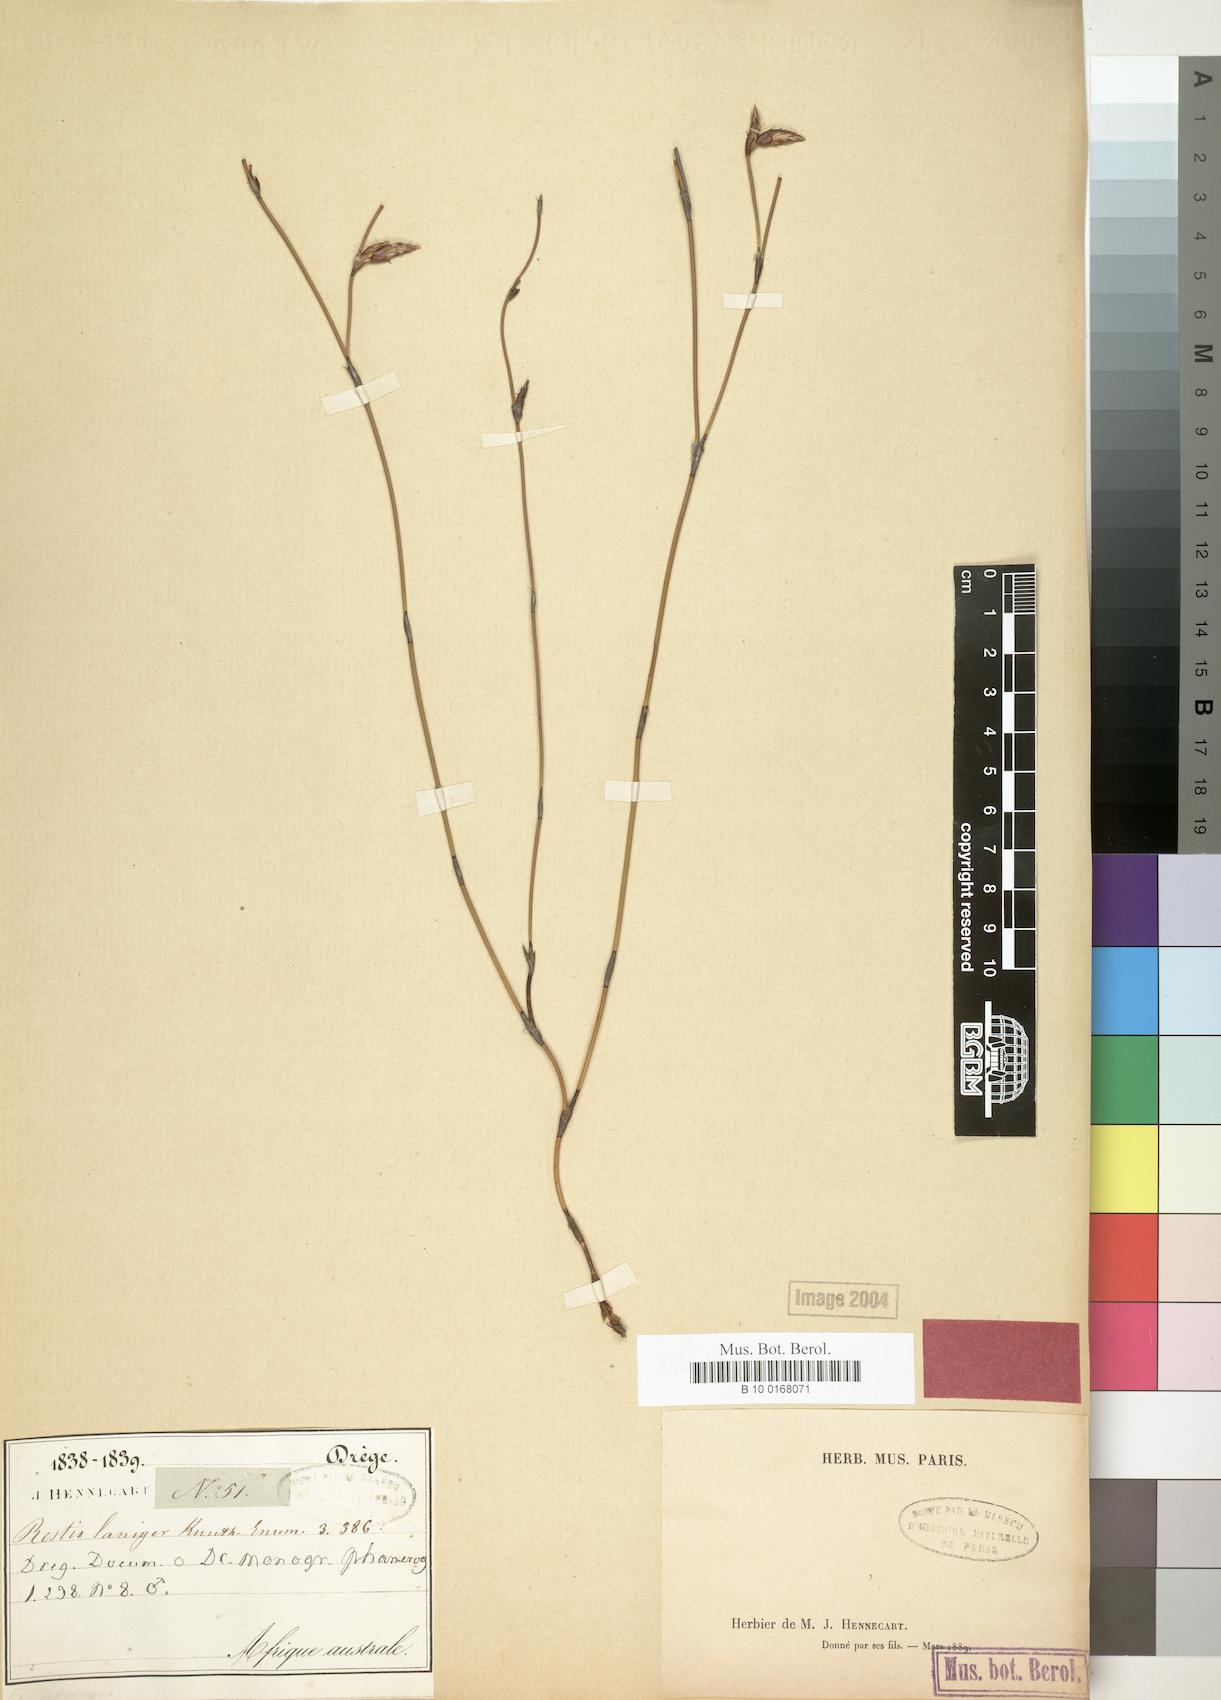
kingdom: Plantae
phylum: Tracheophyta
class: Liliopsida
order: Poales
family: Restionaceae
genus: Restio
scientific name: Restio laniger
